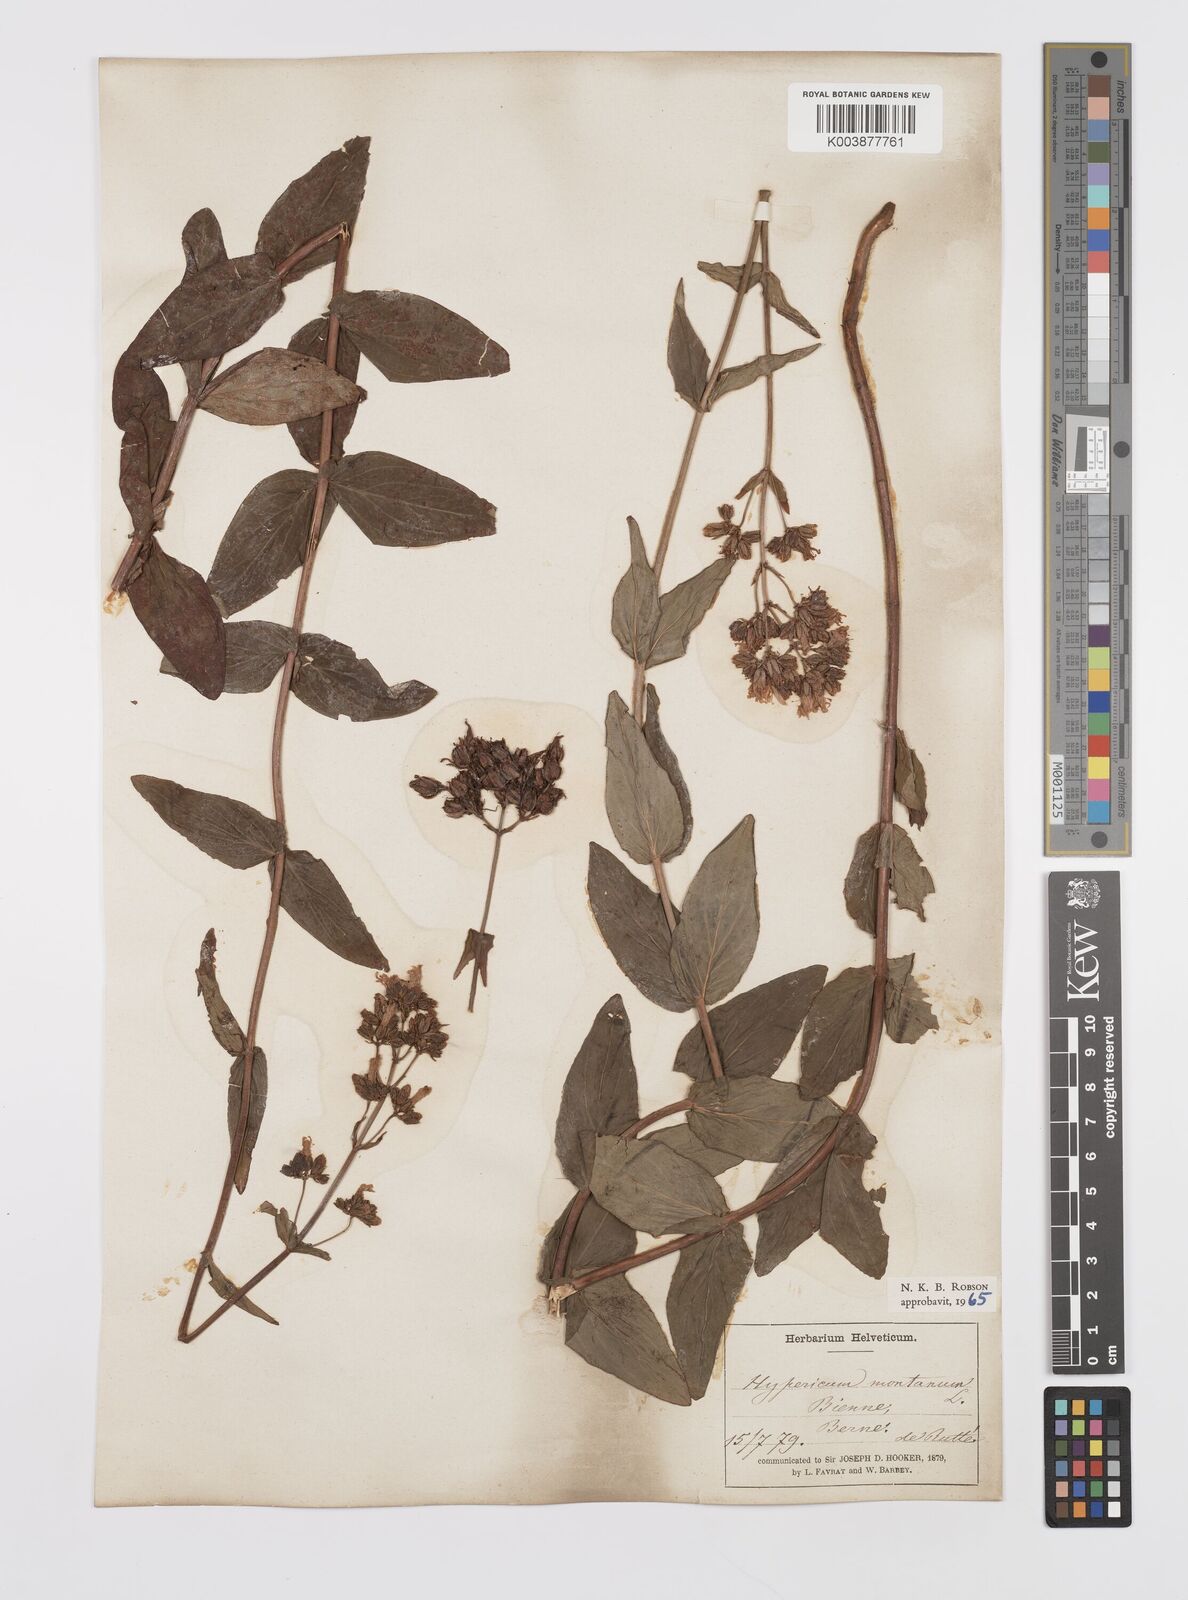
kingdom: Plantae
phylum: Tracheophyta
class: Magnoliopsida
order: Malpighiales
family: Hypericaceae
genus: Hypericum
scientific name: Hypericum montanum
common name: Pale st. john's-wort
